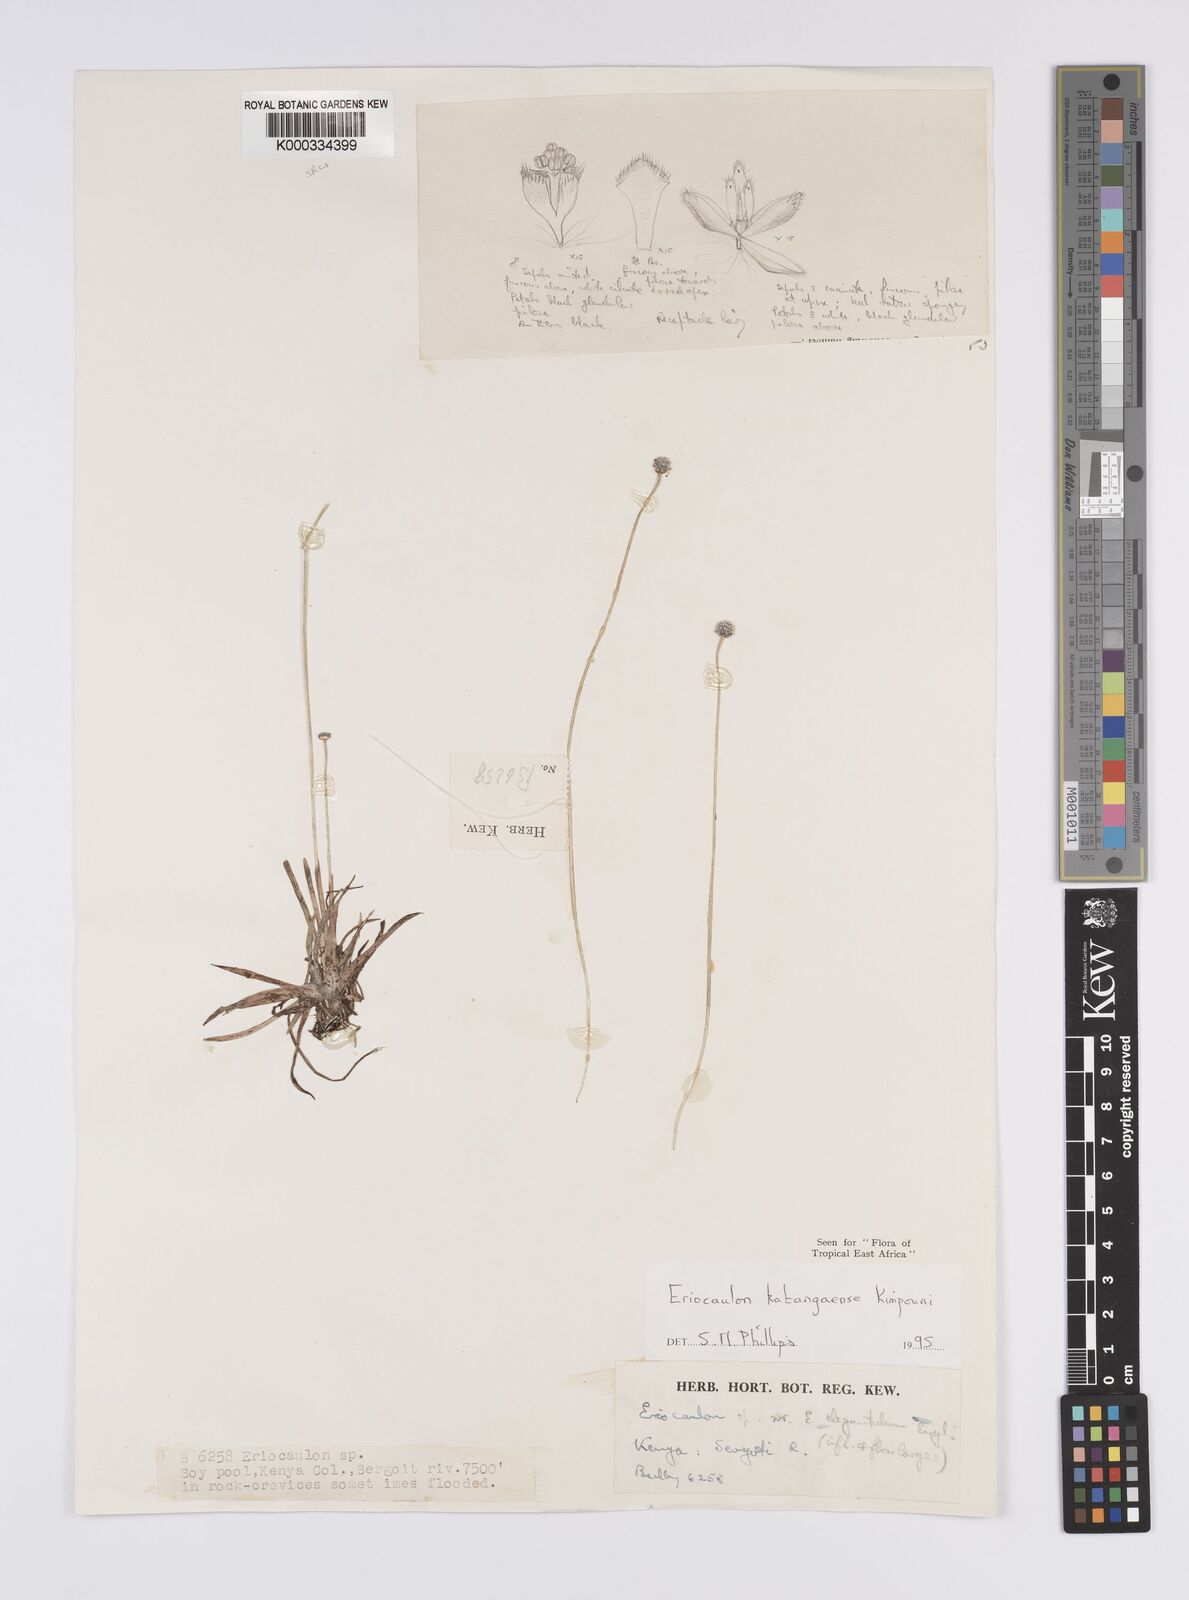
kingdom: Plantae
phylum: Tracheophyta
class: Liliopsida
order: Poales
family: Eriocaulaceae
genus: Eriocaulon
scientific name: Eriocaulon inyangense
